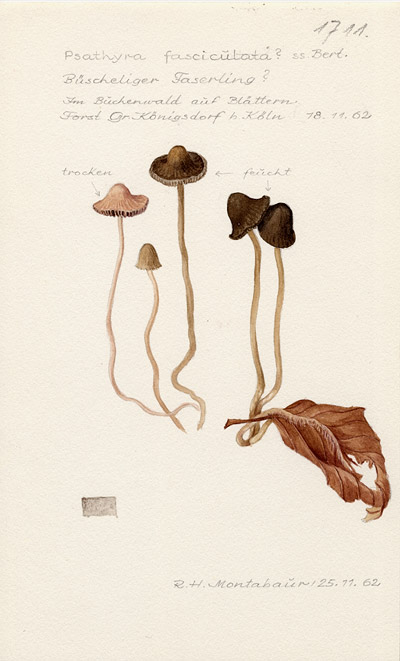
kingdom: Fungi
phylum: Basidiomycota
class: Agaricomycetes
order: Agaricales
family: Psathyrellaceae
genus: Britzelmayria
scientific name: Britzelmayria multipedata
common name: Clustered brittlestem
